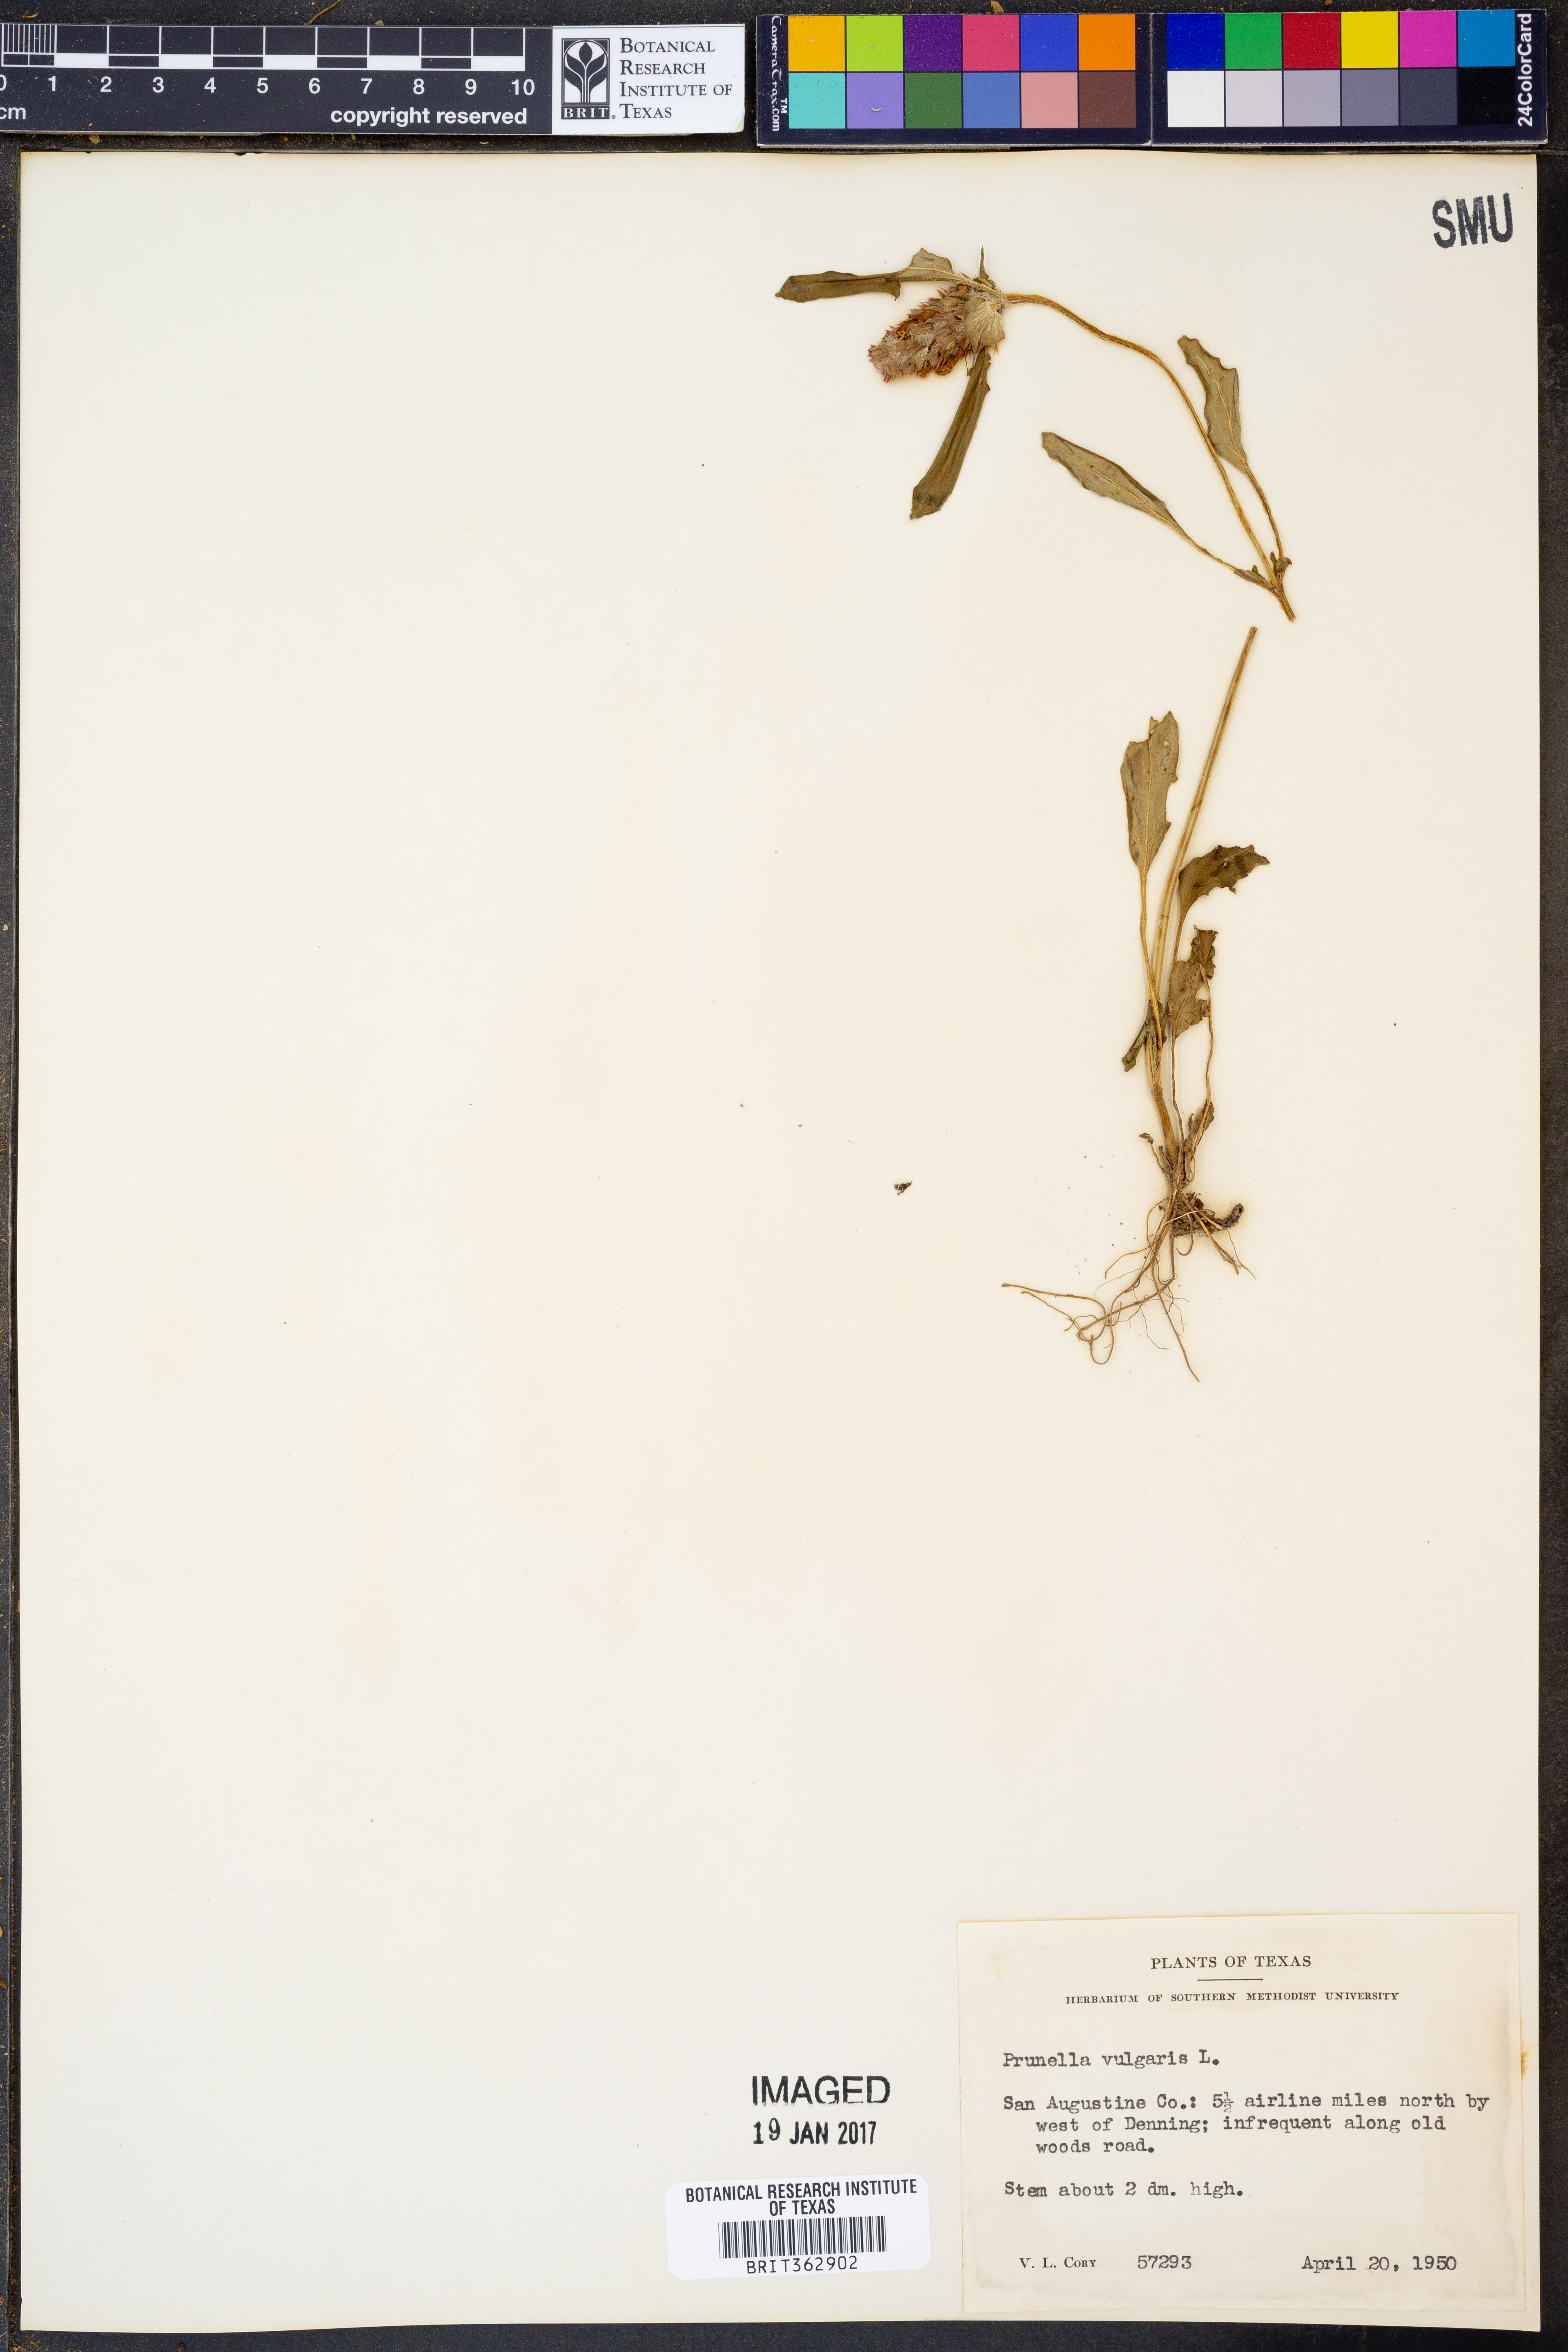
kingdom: Plantae
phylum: Tracheophyta
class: Magnoliopsida
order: Lamiales
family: Lamiaceae
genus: Prunella
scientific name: Prunella vulgaris
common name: Heal-all
